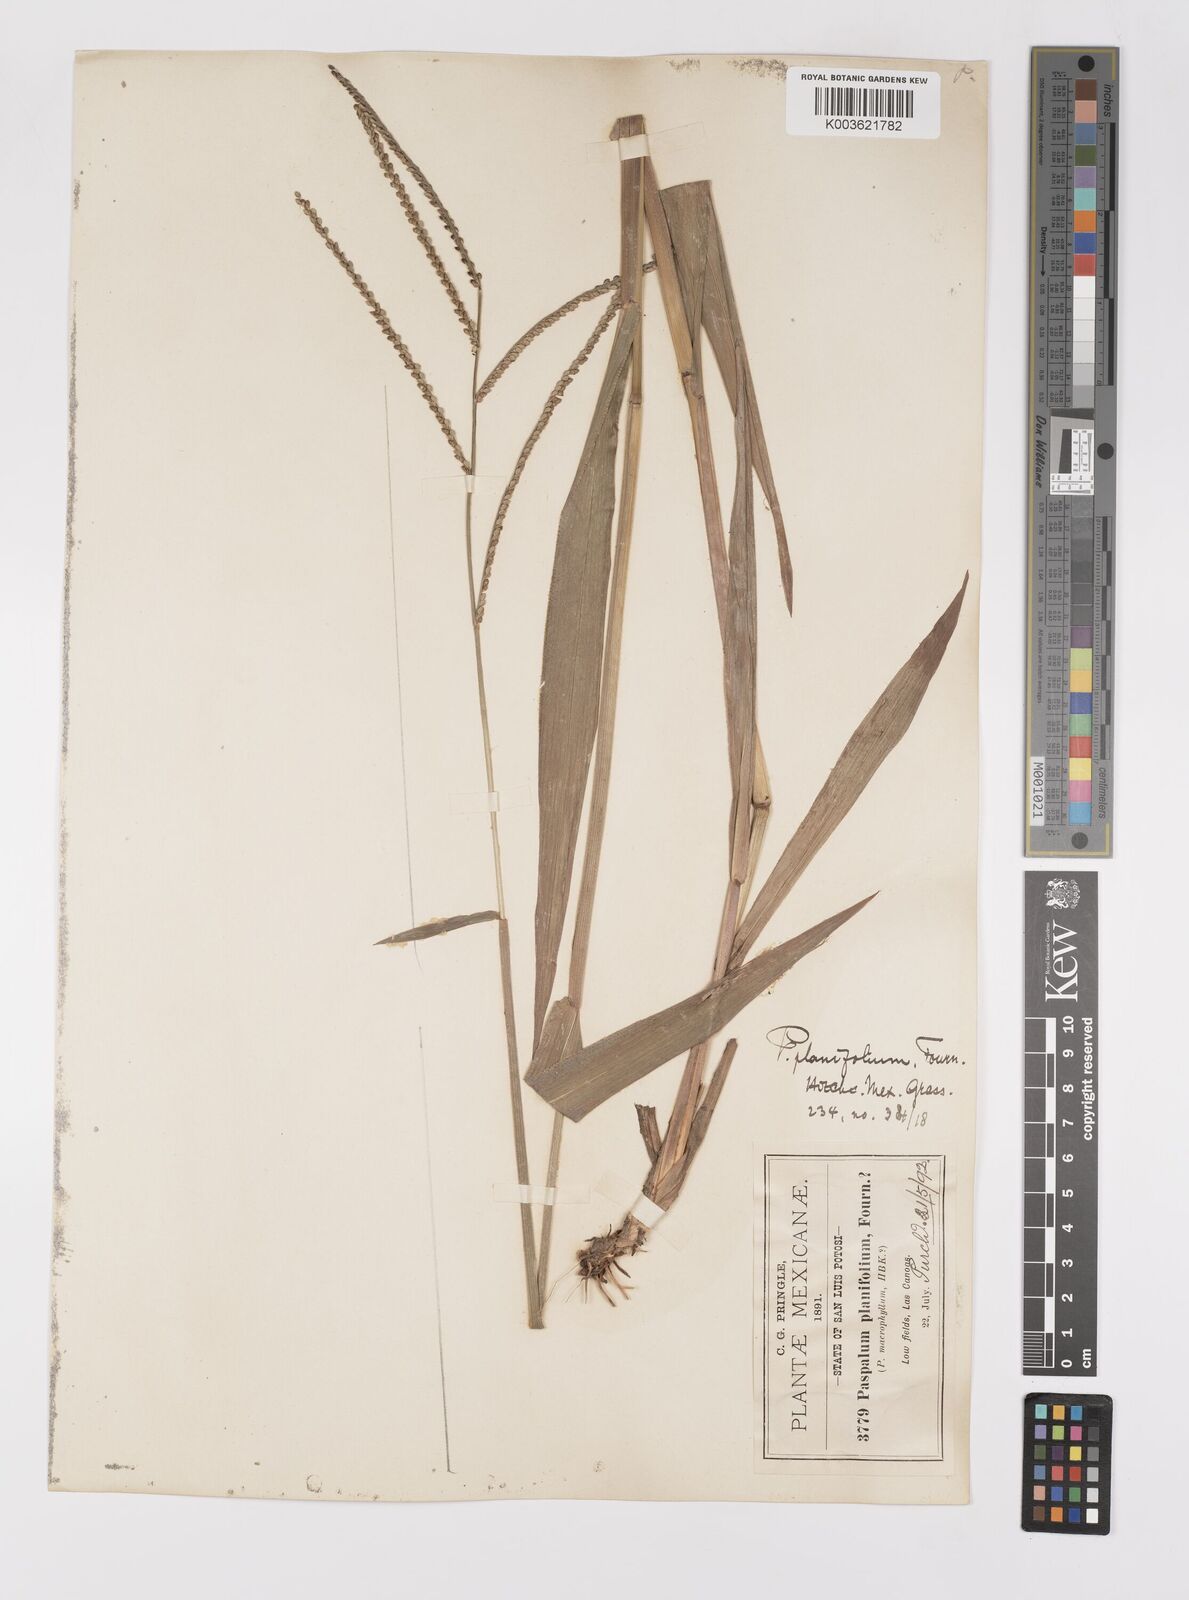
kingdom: Plantae
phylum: Tracheophyta
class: Liliopsida
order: Poales
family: Poaceae
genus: Paspalum
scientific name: Paspalum botterii
